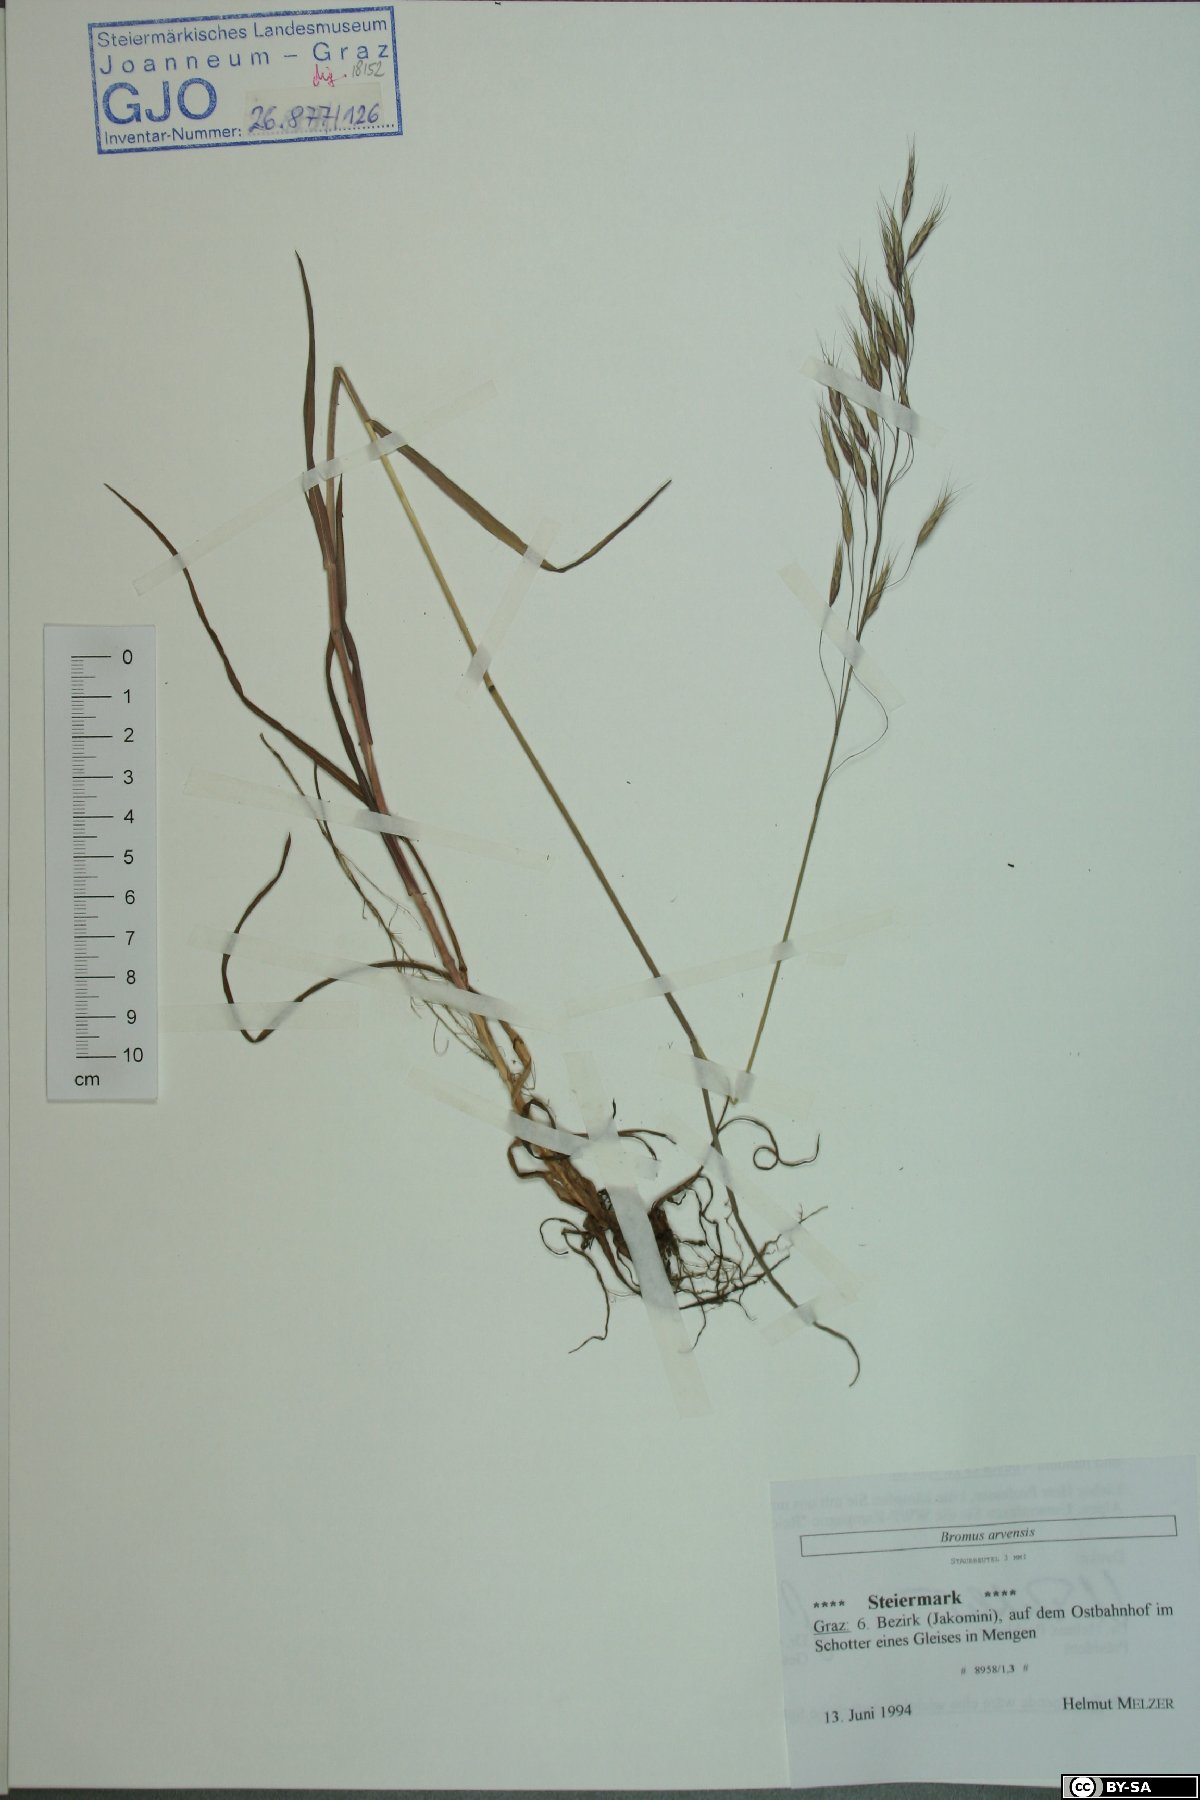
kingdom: Plantae
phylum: Tracheophyta
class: Liliopsida
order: Poales
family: Poaceae
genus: Bromus
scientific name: Bromus arvensis
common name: Field brome
